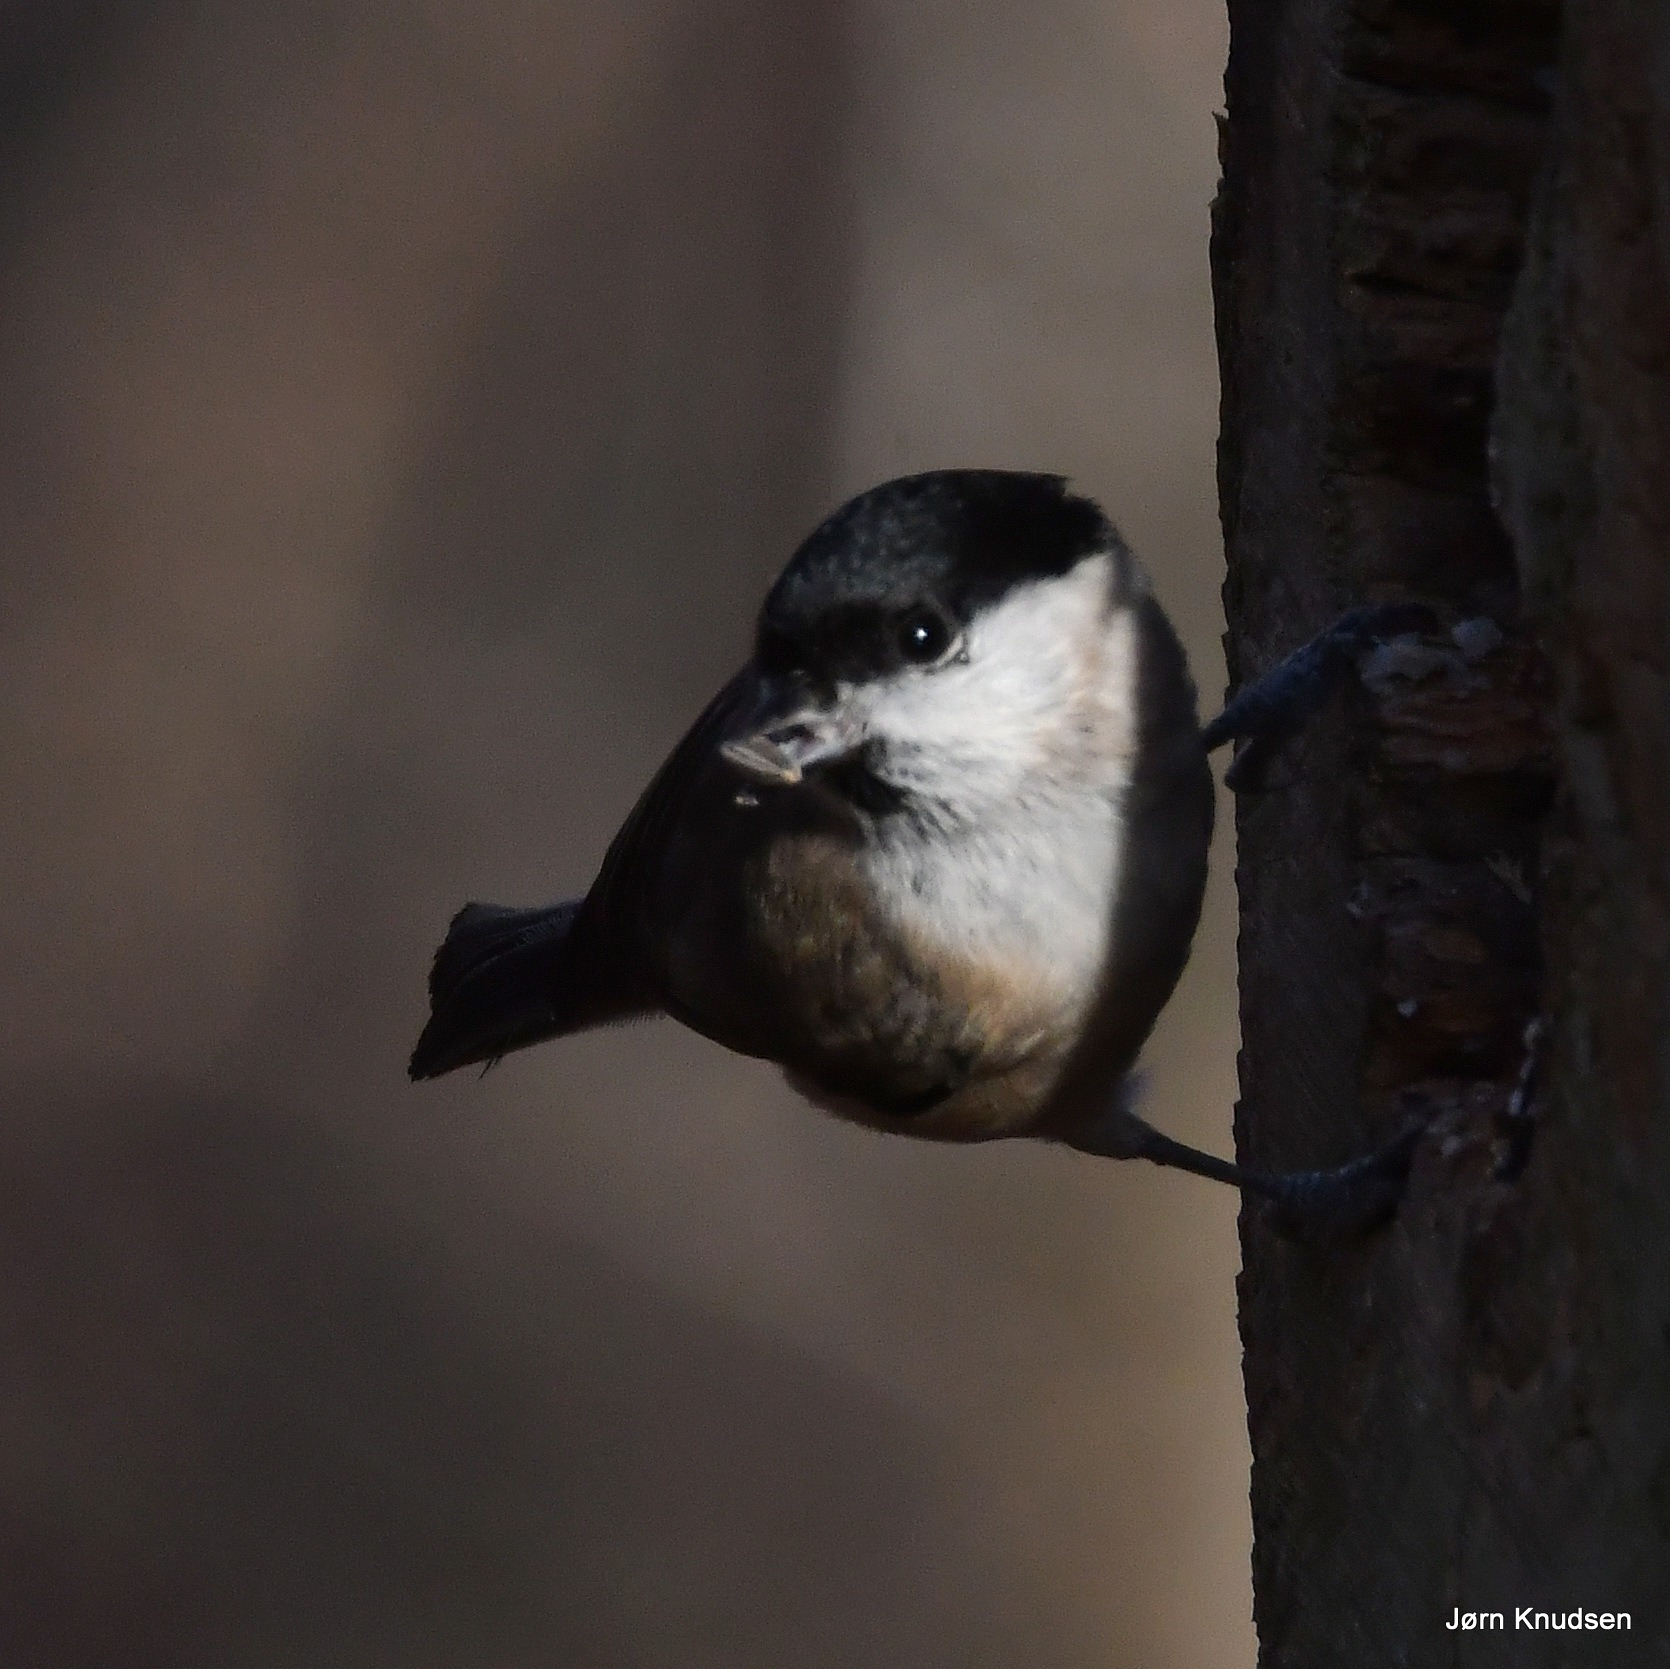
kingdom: Animalia
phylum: Chordata
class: Aves
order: Passeriformes
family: Paridae
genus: Poecile
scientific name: Poecile palustris
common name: Sumpmejse
